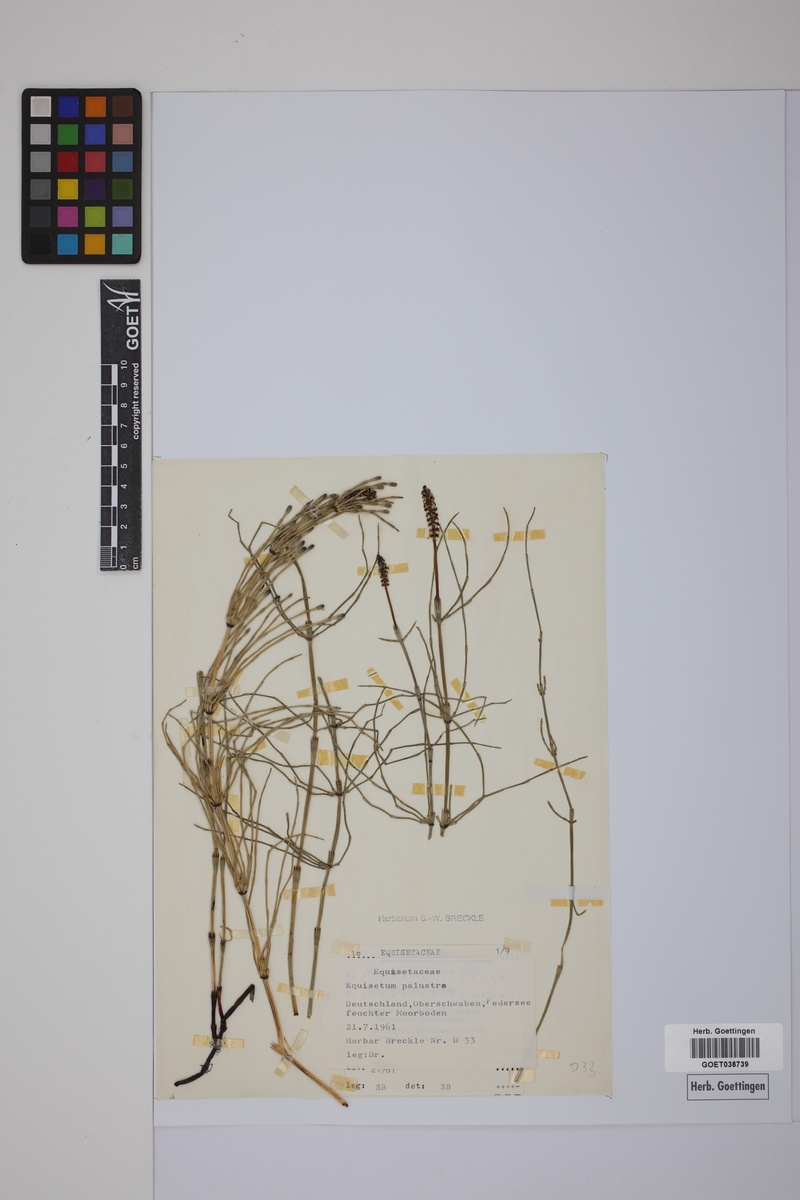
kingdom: Plantae
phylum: Tracheophyta
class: Polypodiopsida
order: Equisetales
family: Equisetaceae
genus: Equisetum
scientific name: Equisetum palustre
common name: Marsh horsetail
